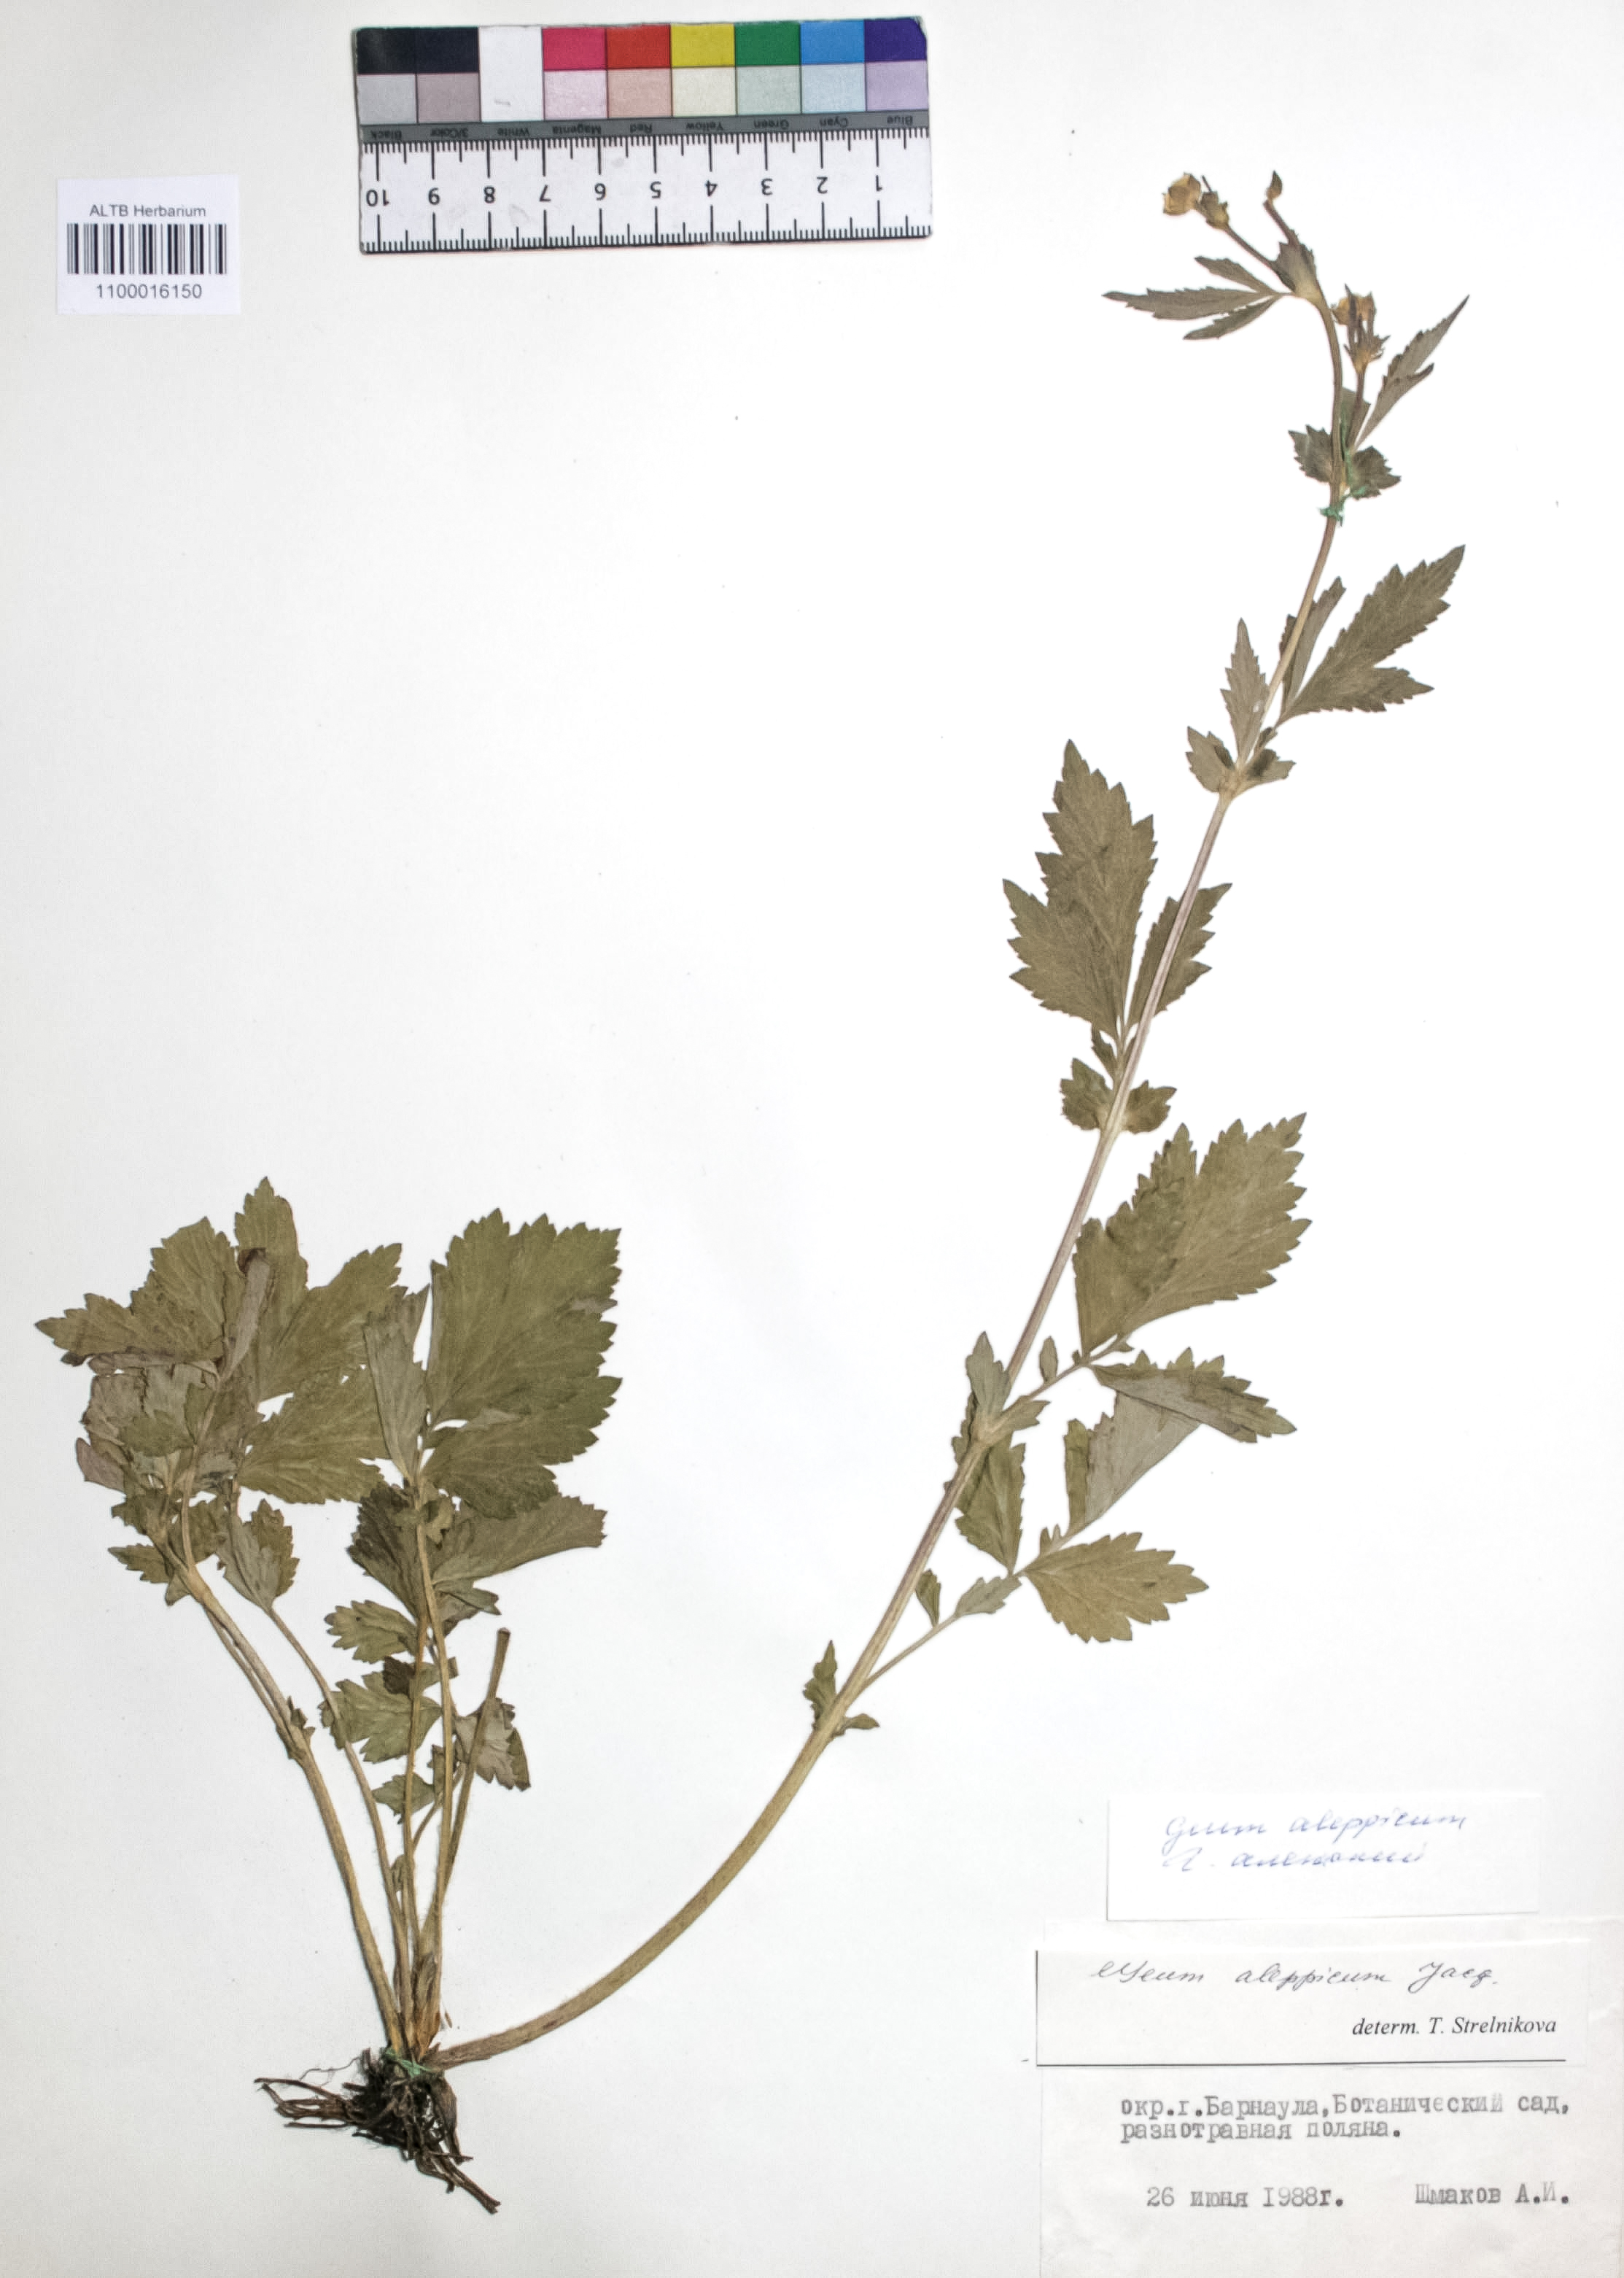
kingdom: Plantae
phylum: Tracheophyta
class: Magnoliopsida
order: Rosales
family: Rosaceae
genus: Geum
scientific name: Geum aleppicum
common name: Yellow avens
